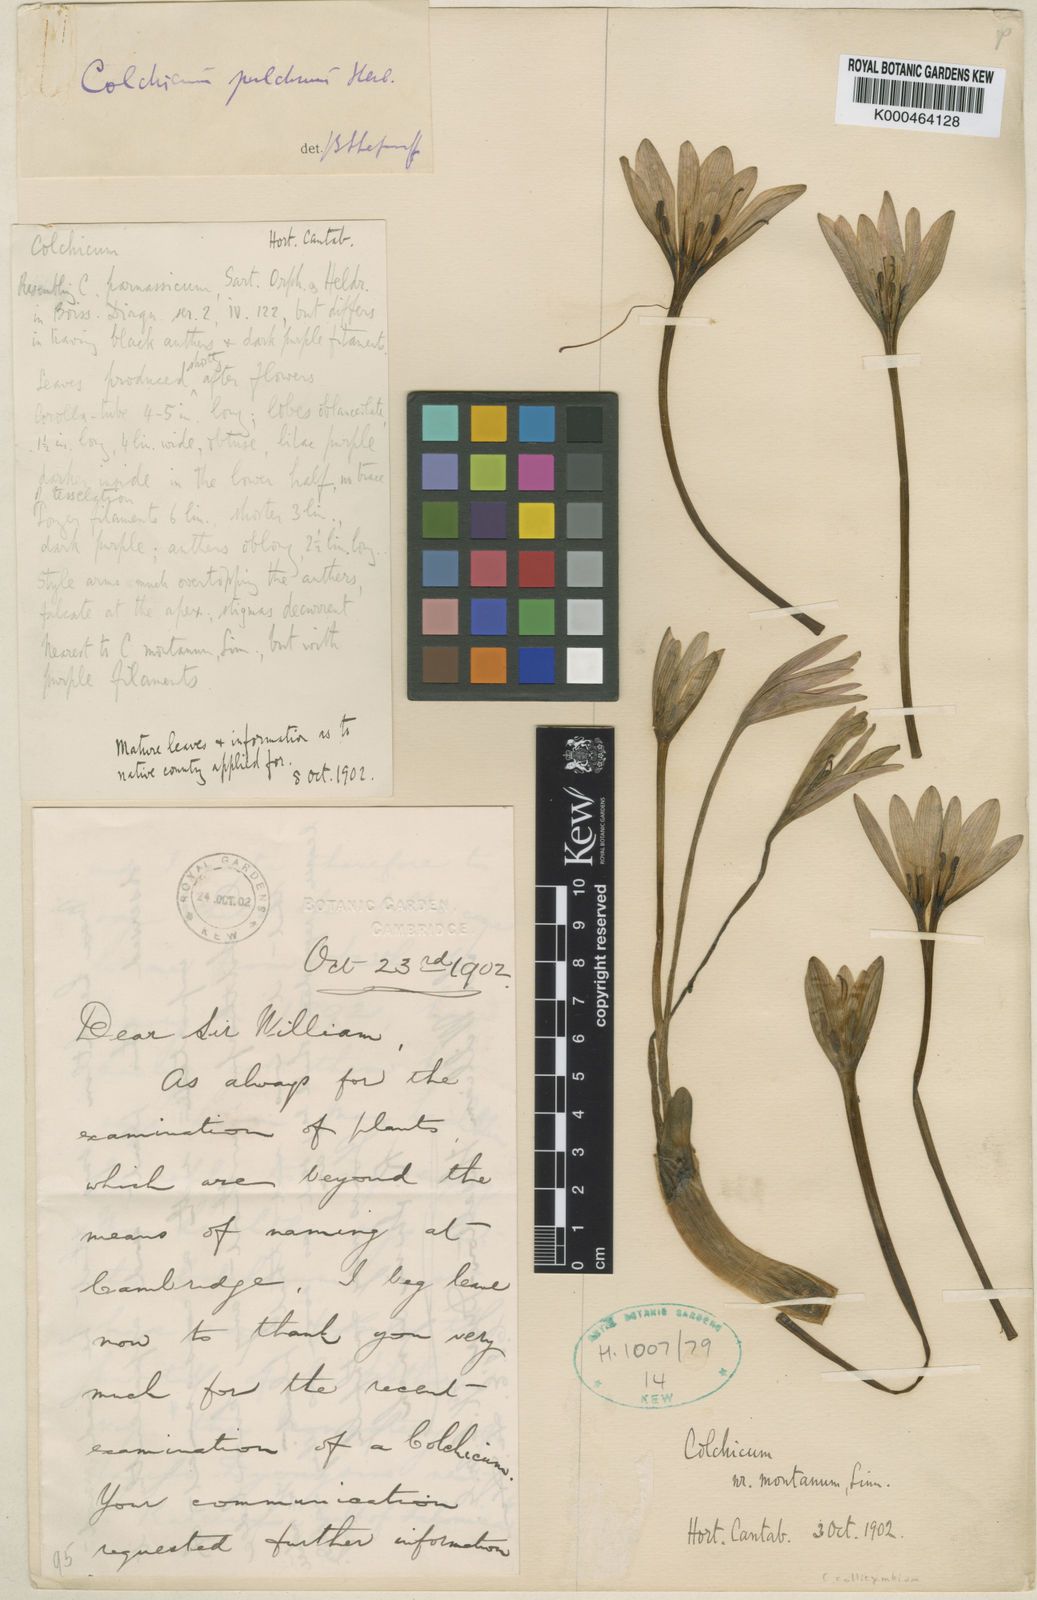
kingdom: Plantae
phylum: Tracheophyta
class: Liliopsida
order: Liliales
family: Colchicaceae
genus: Colchicum
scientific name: Colchicum haynaldii
